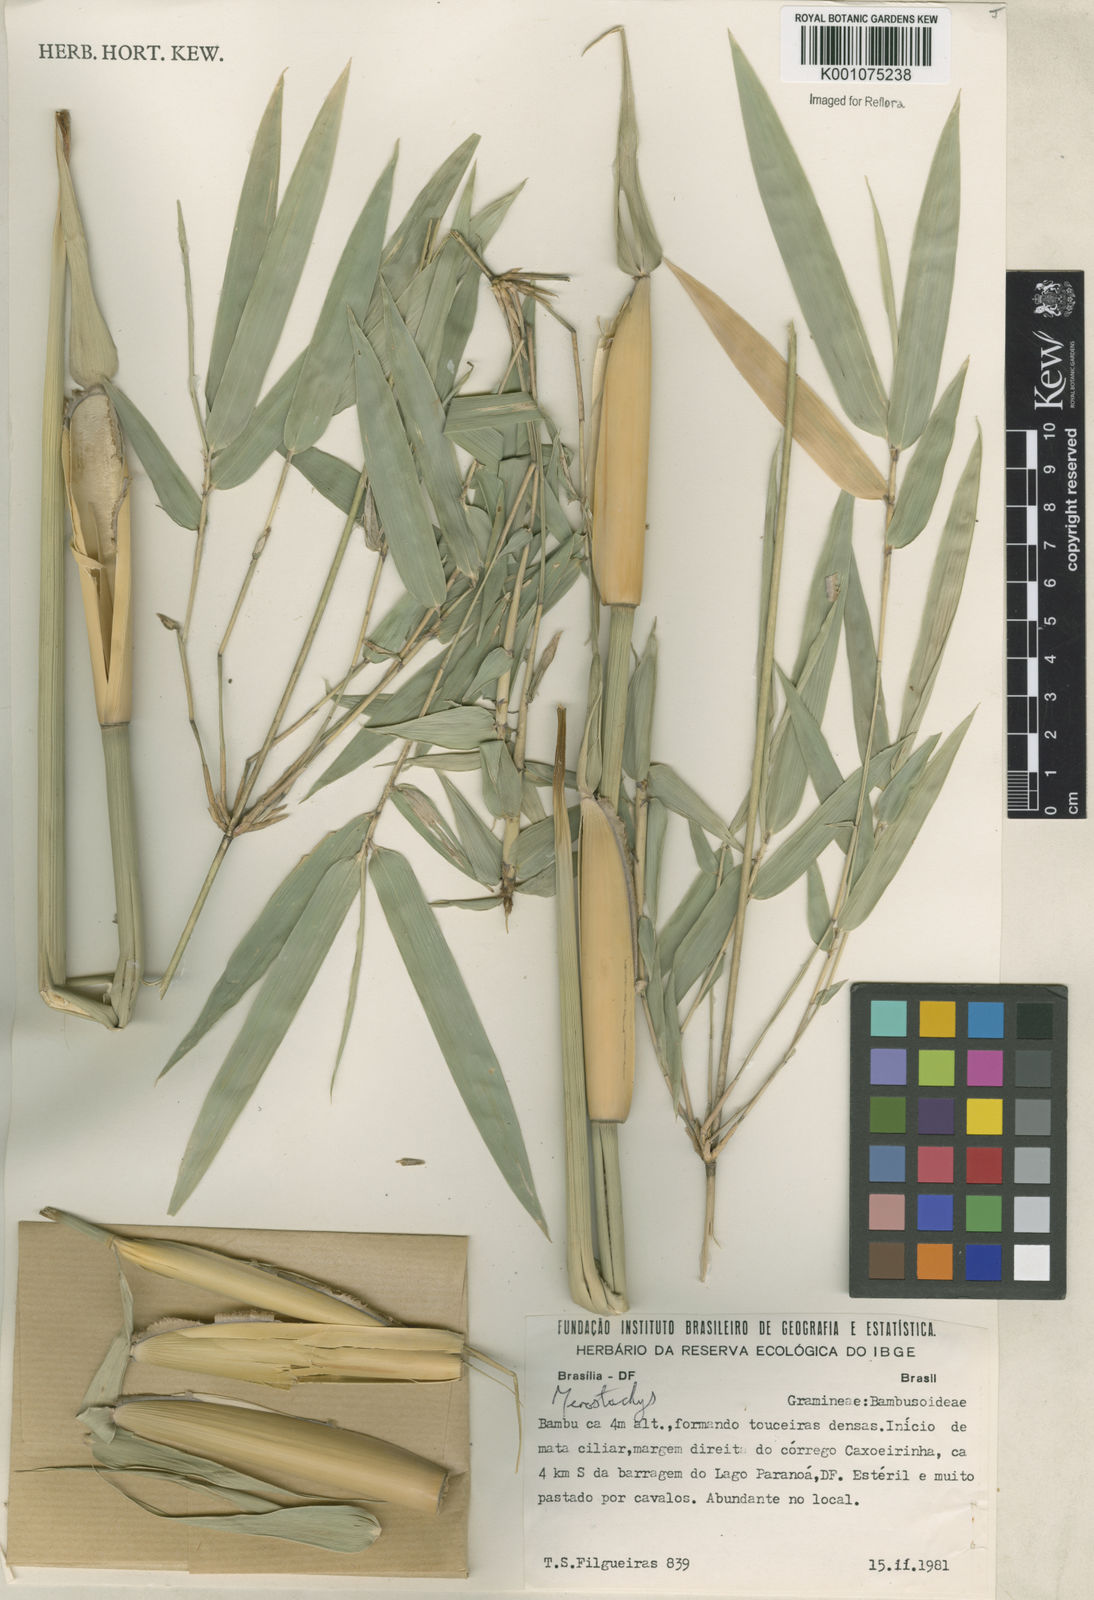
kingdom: Plantae
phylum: Tracheophyta
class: Liliopsida
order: Poales
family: Poaceae
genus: Merostachys
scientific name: Merostachys
